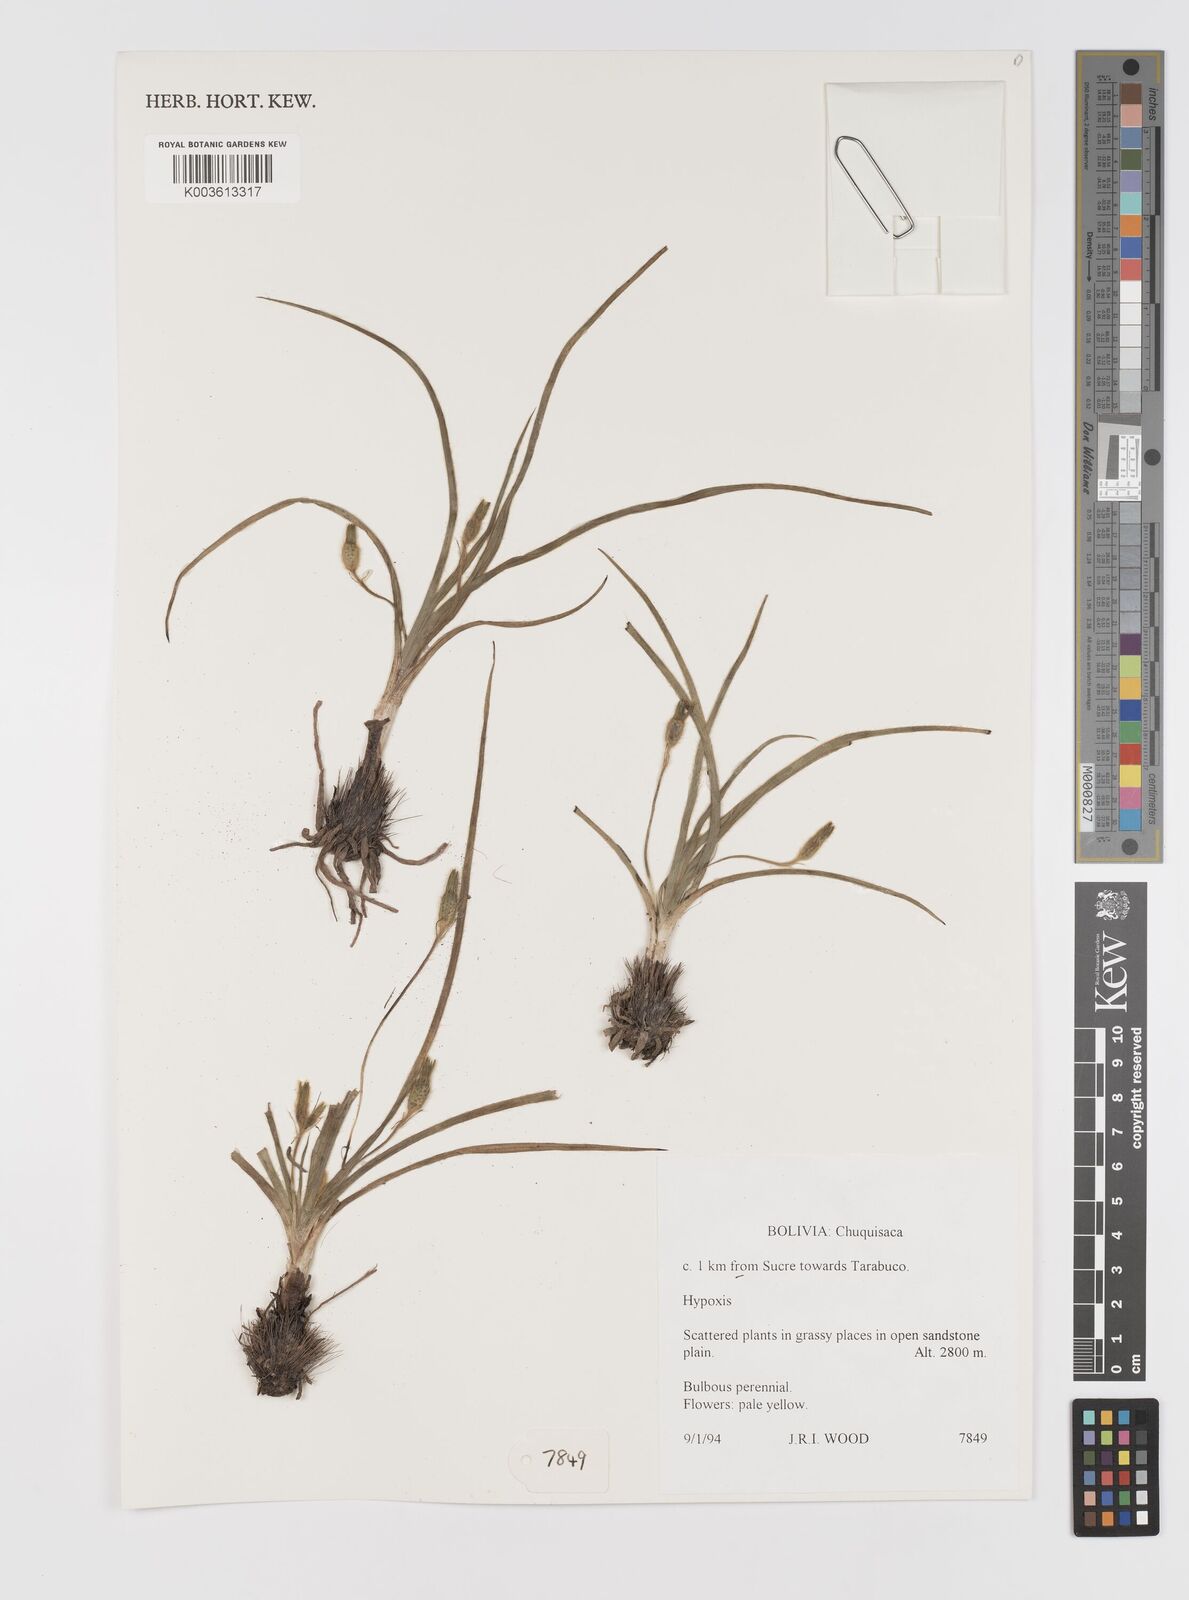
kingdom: Plantae
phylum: Tracheophyta
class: Liliopsida
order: Asparagales
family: Hypoxidaceae
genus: Hypoxis
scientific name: Hypoxis
